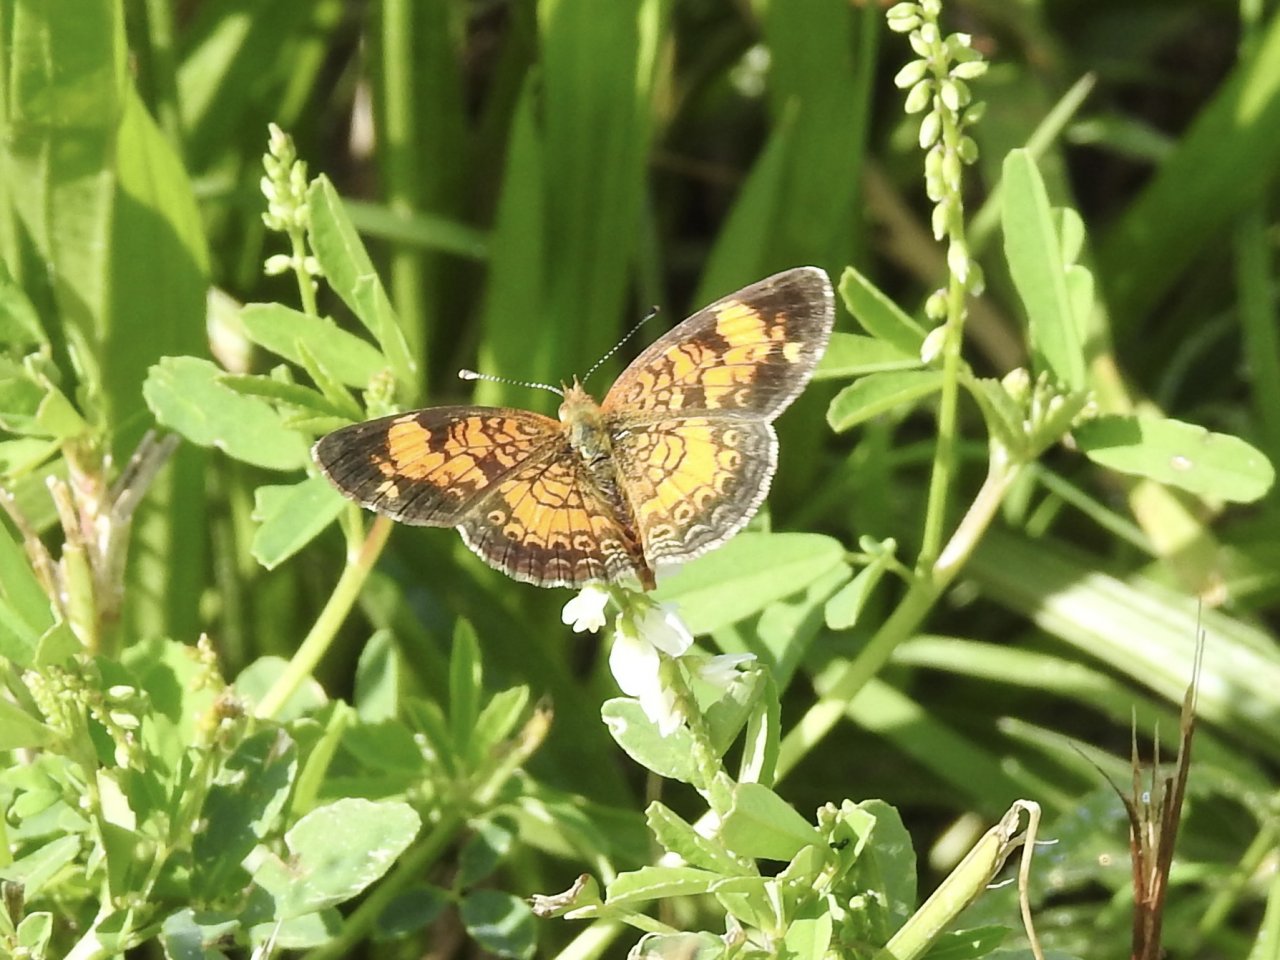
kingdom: Animalia
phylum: Arthropoda
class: Insecta
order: Lepidoptera
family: Nymphalidae
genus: Phyciodes
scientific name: Phyciodes tharos
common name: Pearl Crescent
